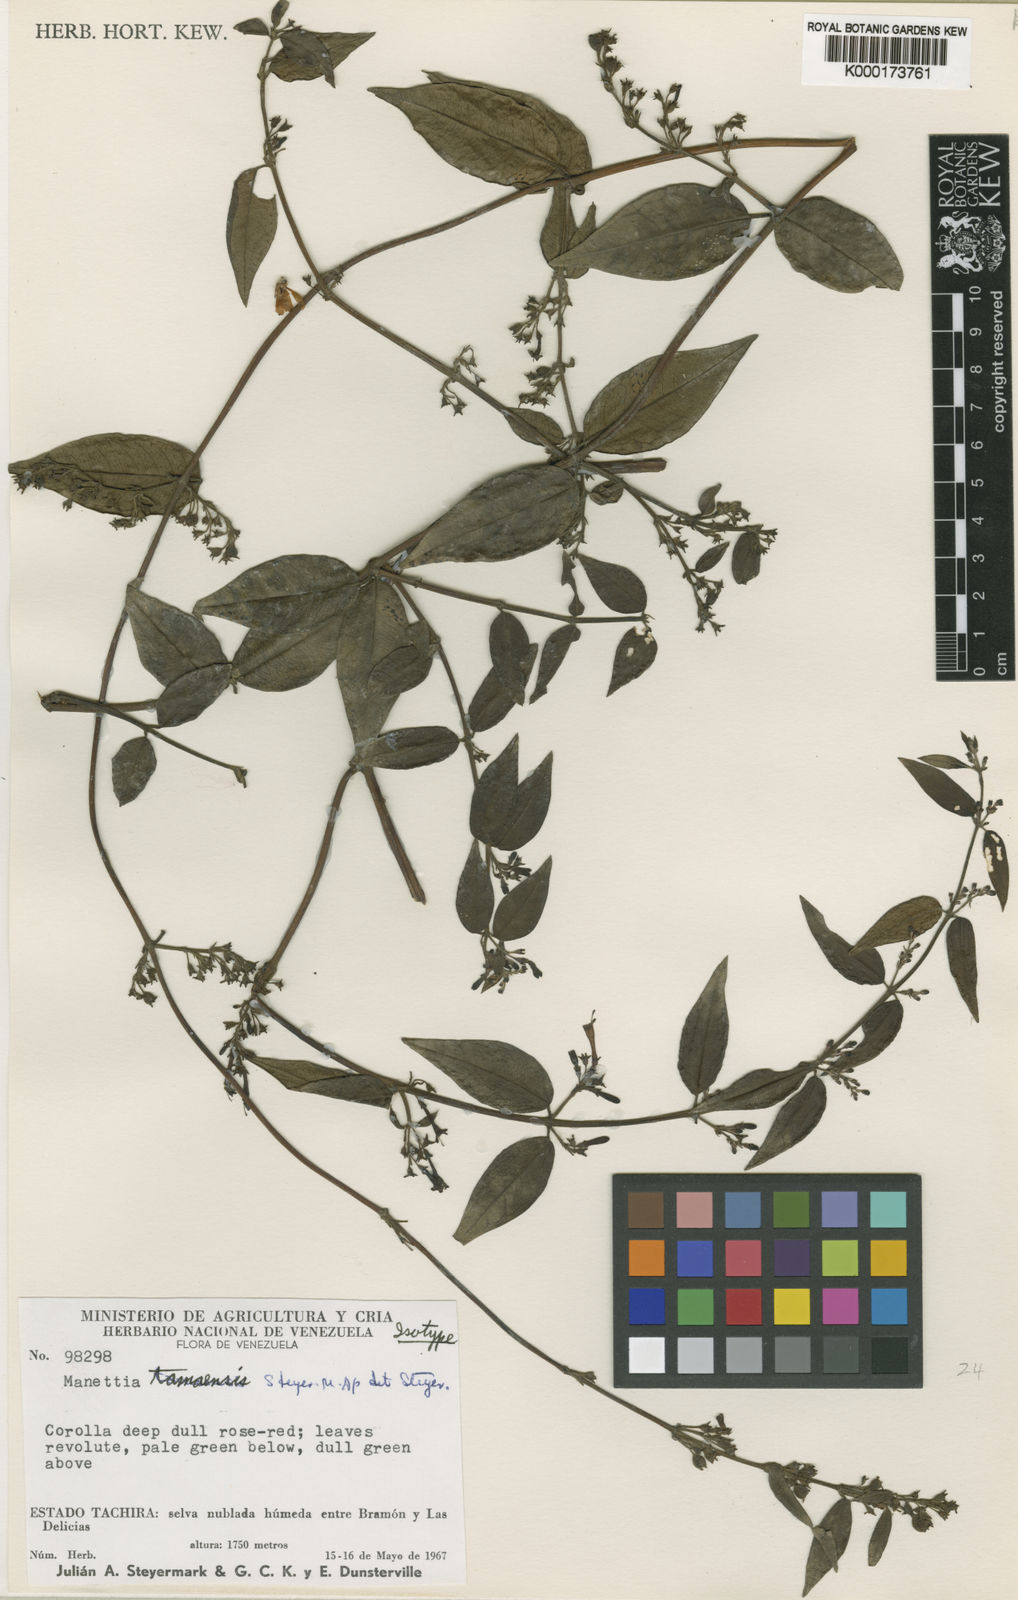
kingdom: Plantae
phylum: Tracheophyta
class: Magnoliopsida
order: Gentianales
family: Rubiaceae
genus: Manettia
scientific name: Manettia tamaensis
